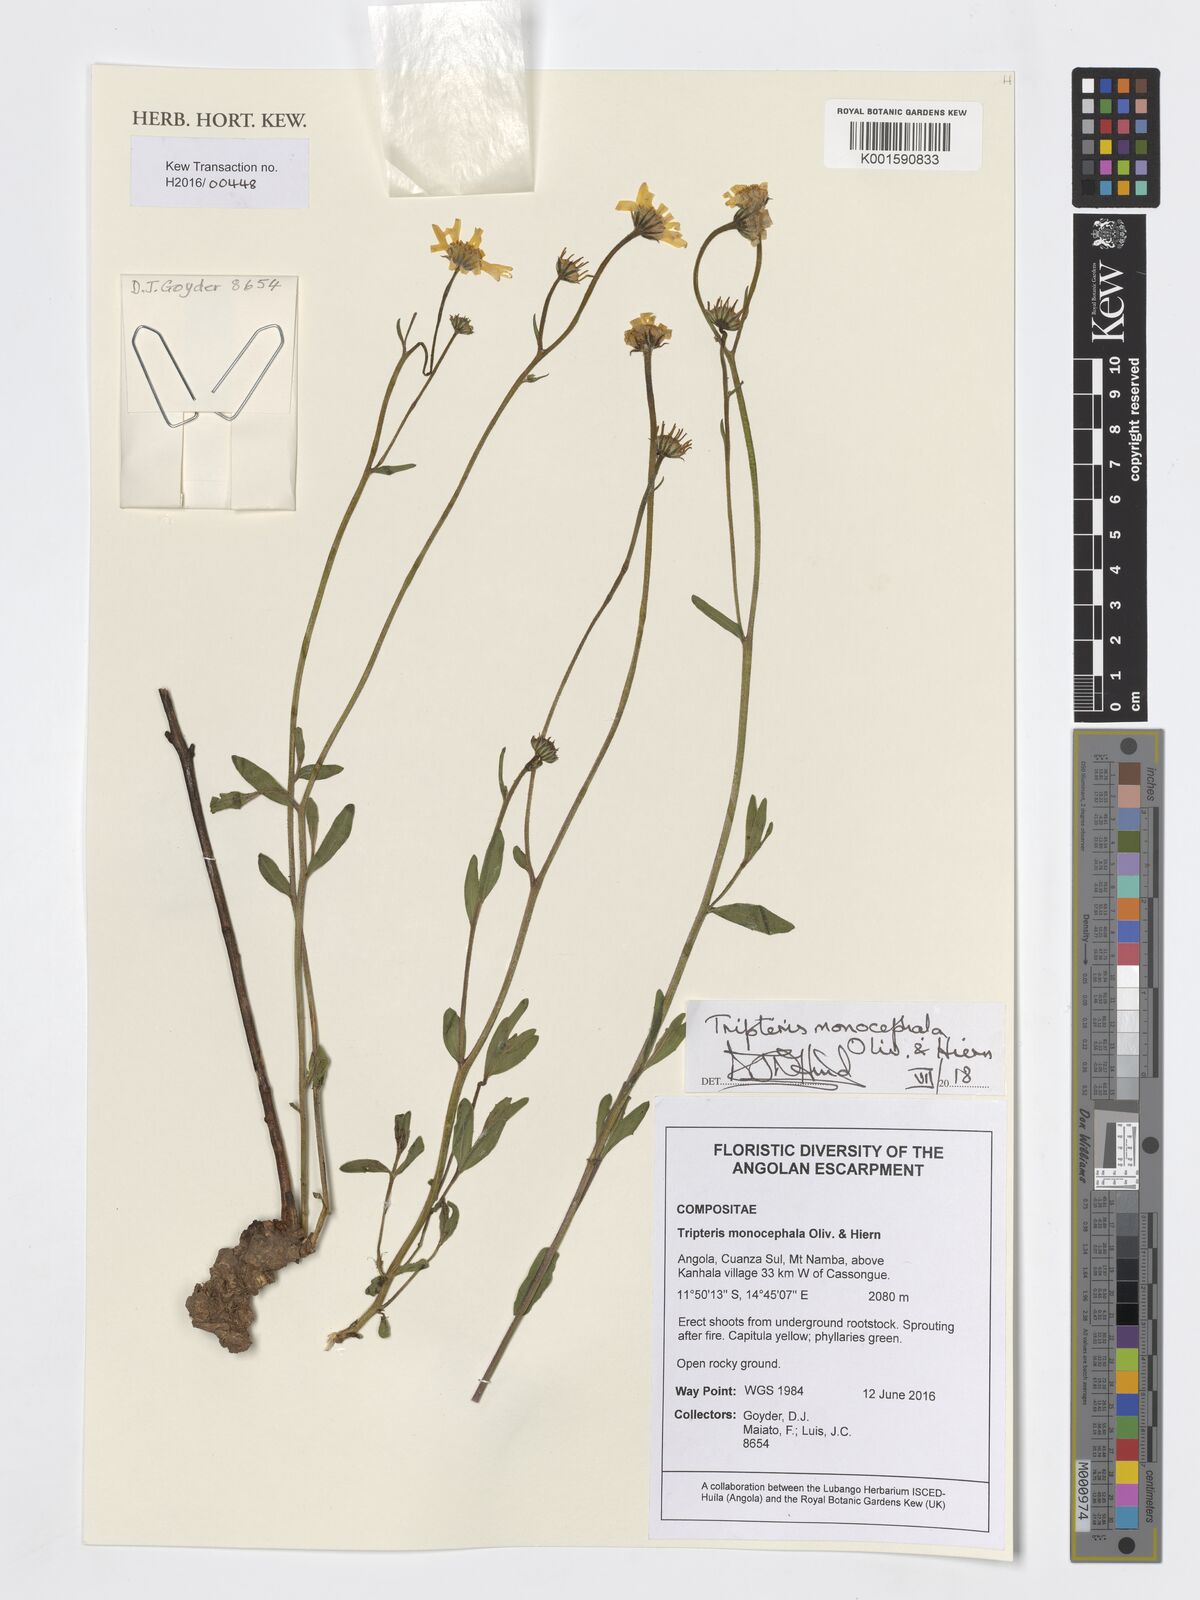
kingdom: Plantae
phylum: Tracheophyta
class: Magnoliopsida
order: Asterales
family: Asteraceae
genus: Osteospermum
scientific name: Osteospermum monocephalum
